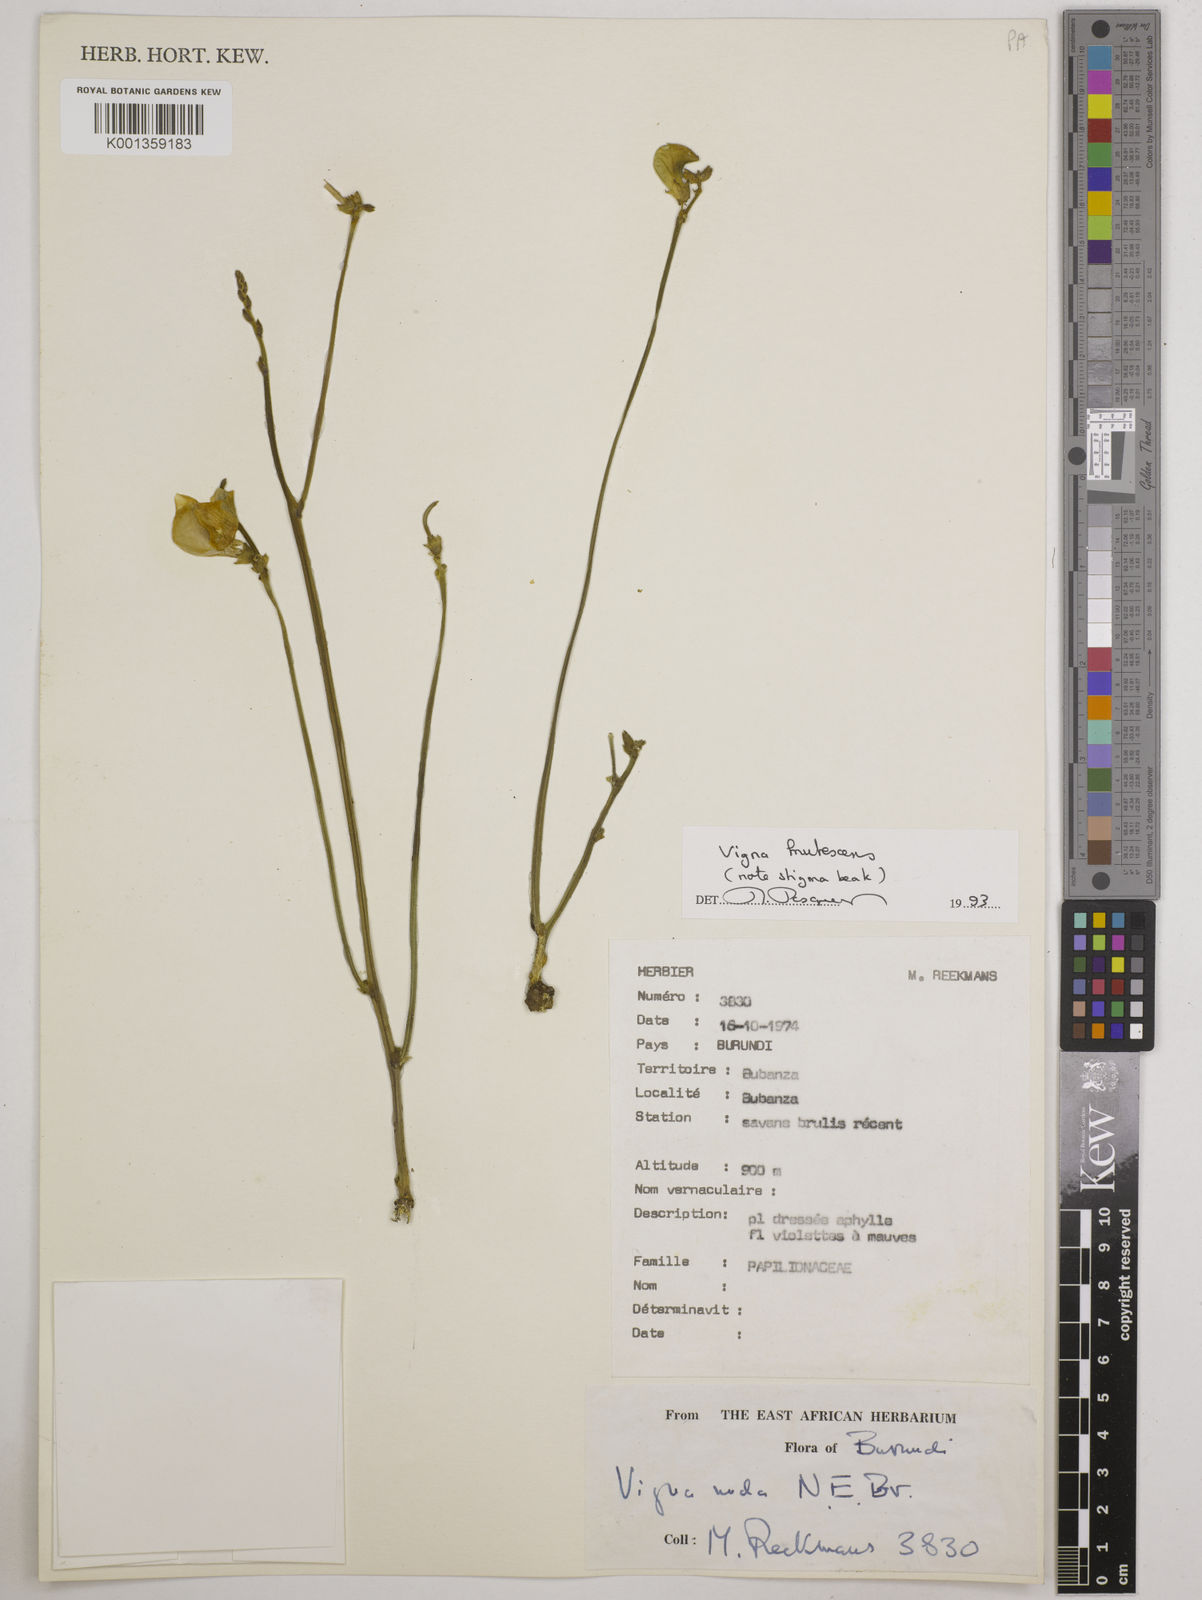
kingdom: Plantae
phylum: Tracheophyta
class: Magnoliopsida
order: Fabales
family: Fabaceae
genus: Vigna
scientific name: Vigna frutescens
